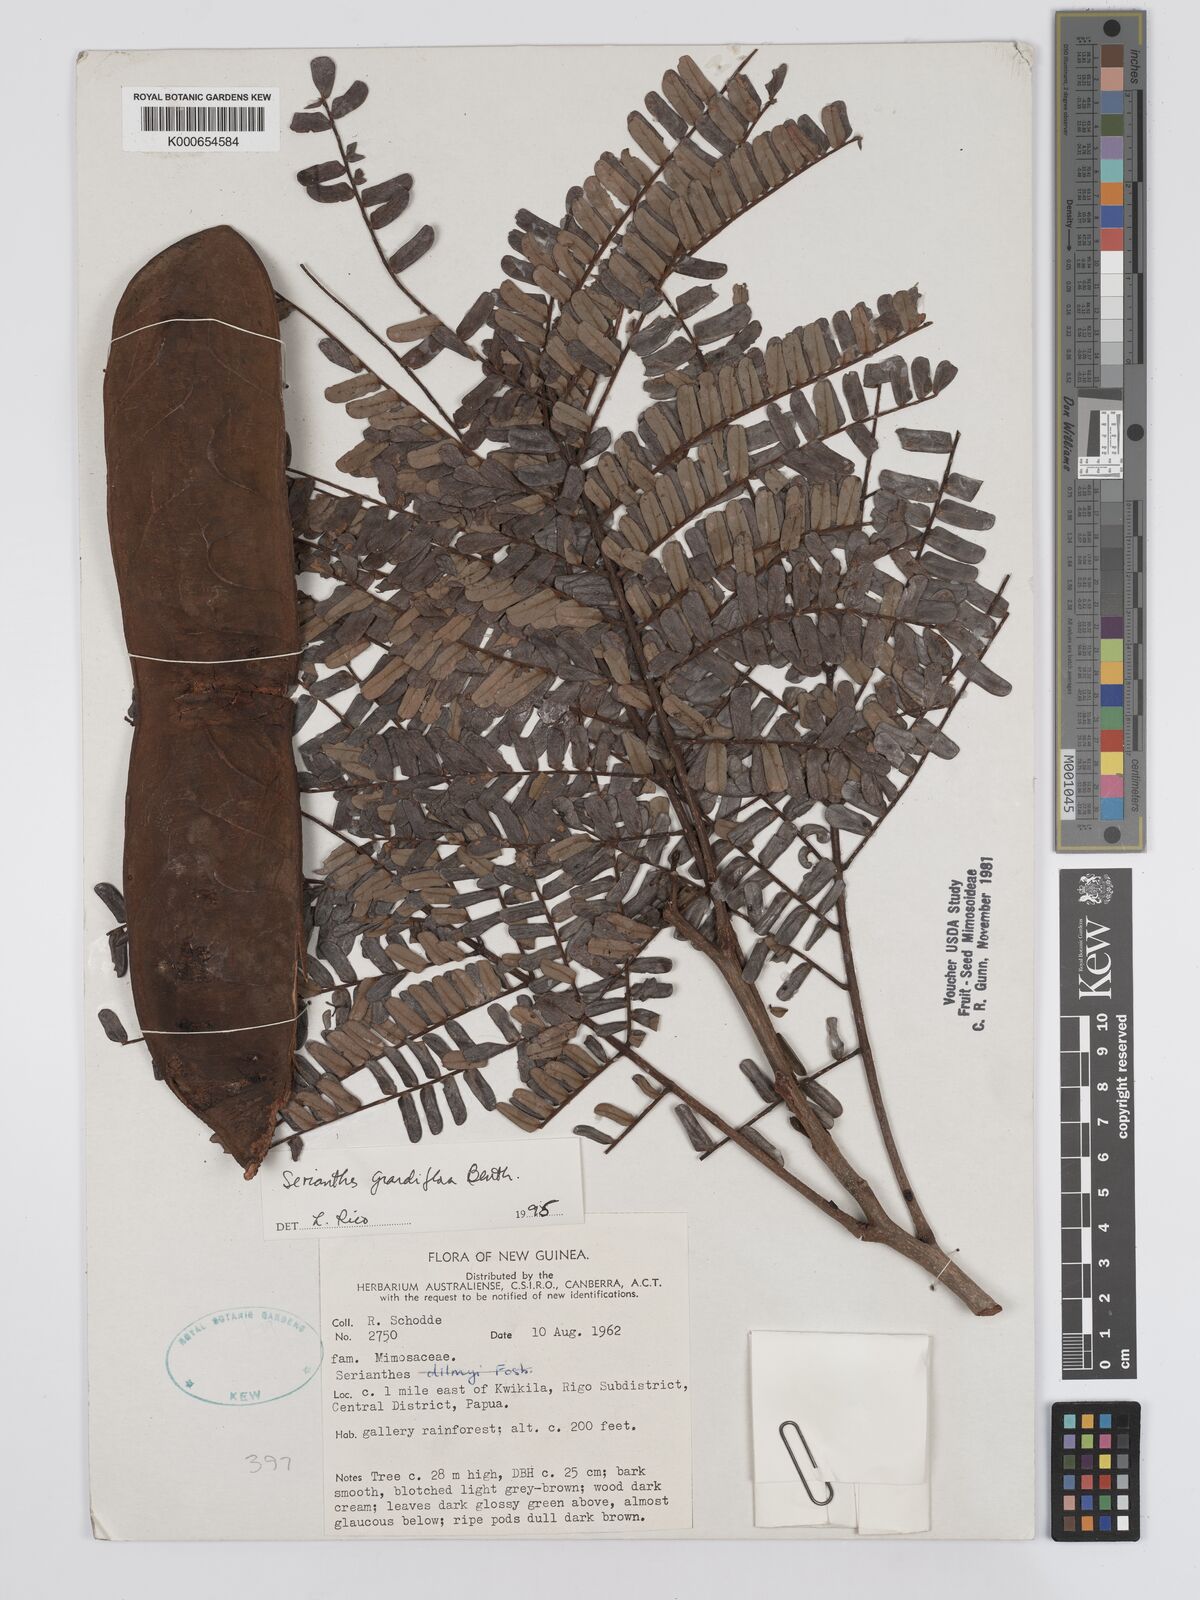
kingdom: Plantae
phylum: Tracheophyta
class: Magnoliopsida
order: Fabales
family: Fabaceae
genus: Serianthes
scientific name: Serianthes grandiflora
